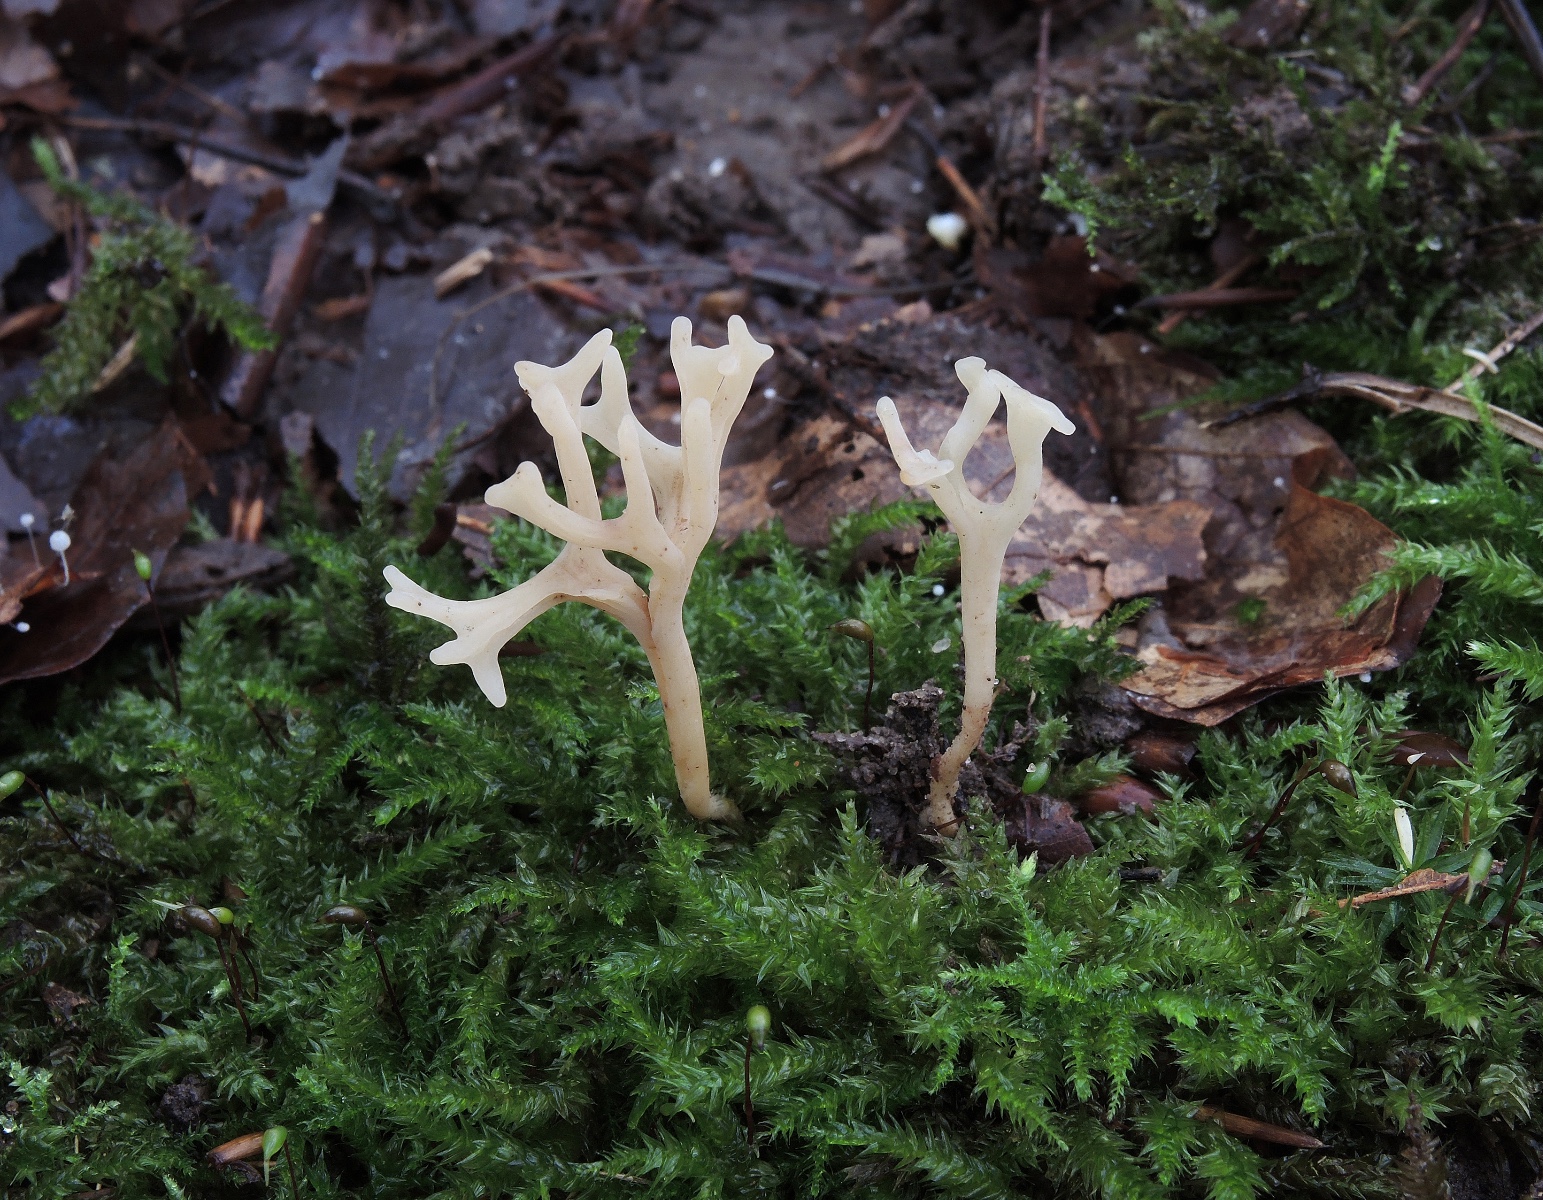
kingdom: Fungi
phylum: Basidiomycota
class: Agaricomycetes
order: Agaricales
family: Clavariaceae
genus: Ramariopsis
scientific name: Ramariopsis subtilis
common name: Slender coral
